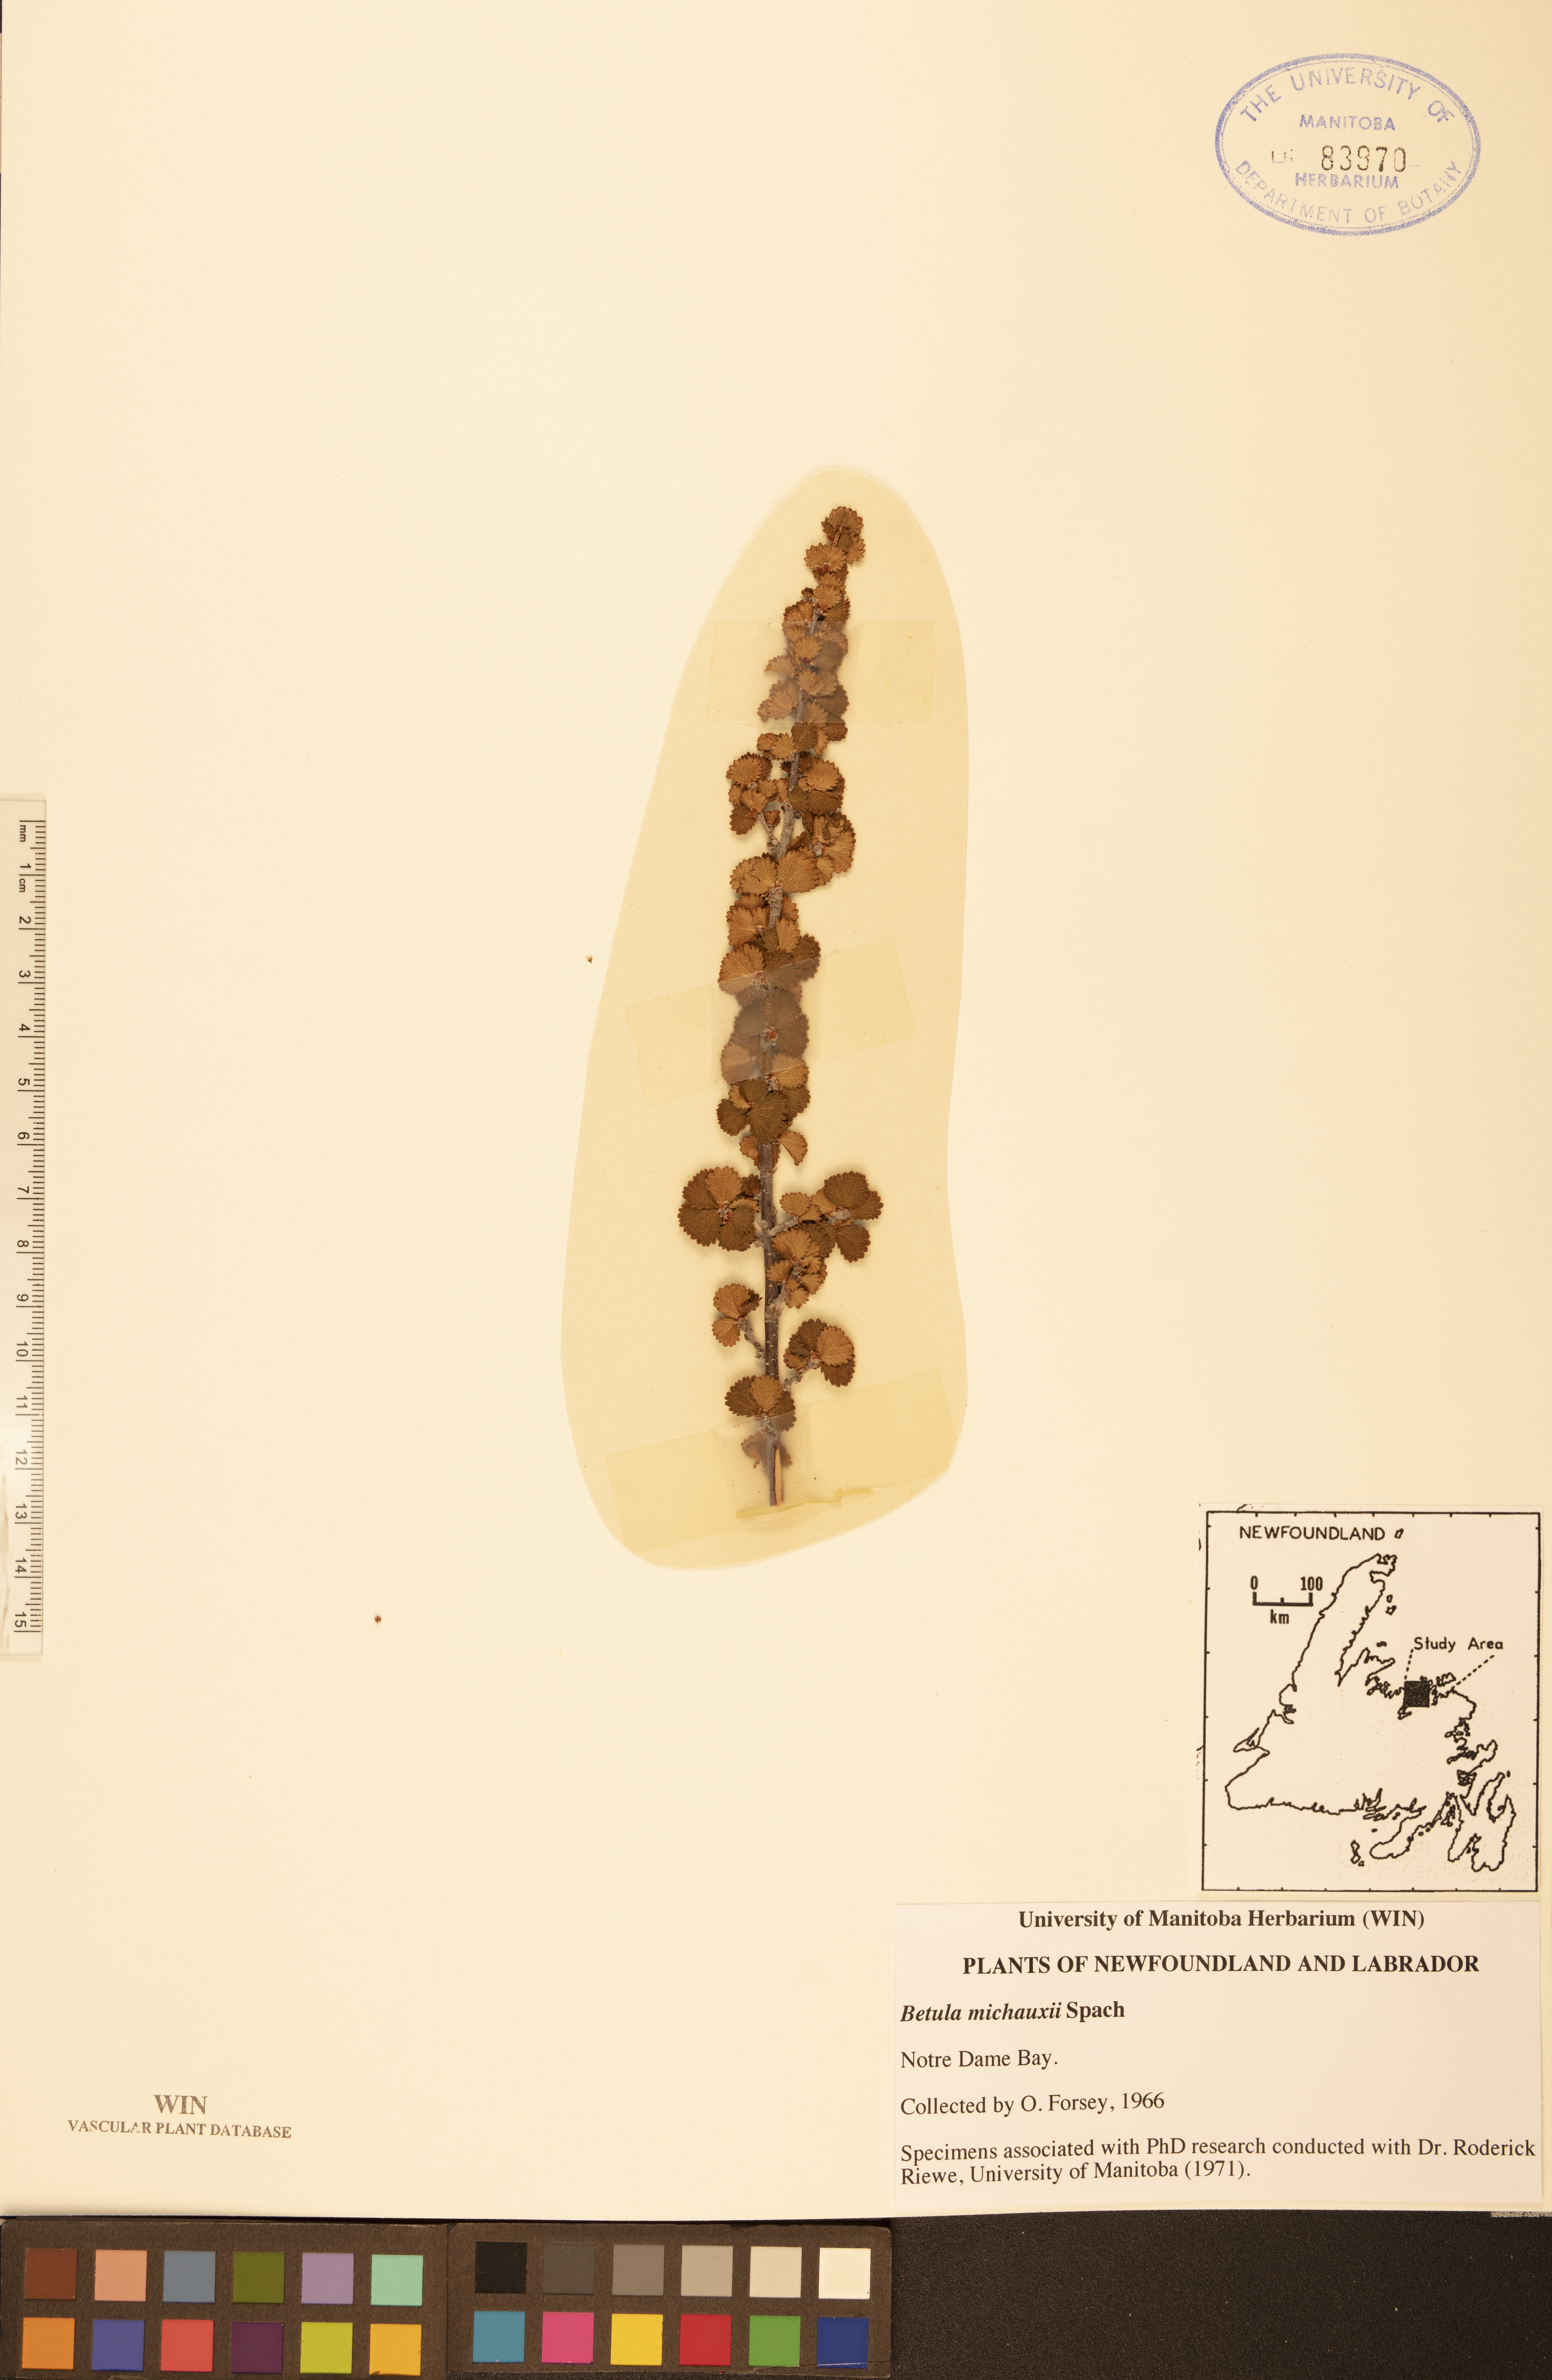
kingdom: Plantae
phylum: Tracheophyta
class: Magnoliopsida
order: Fagales
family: Betulaceae
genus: Betula
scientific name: Betula michauxii
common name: Newfoundland dwarf birch
